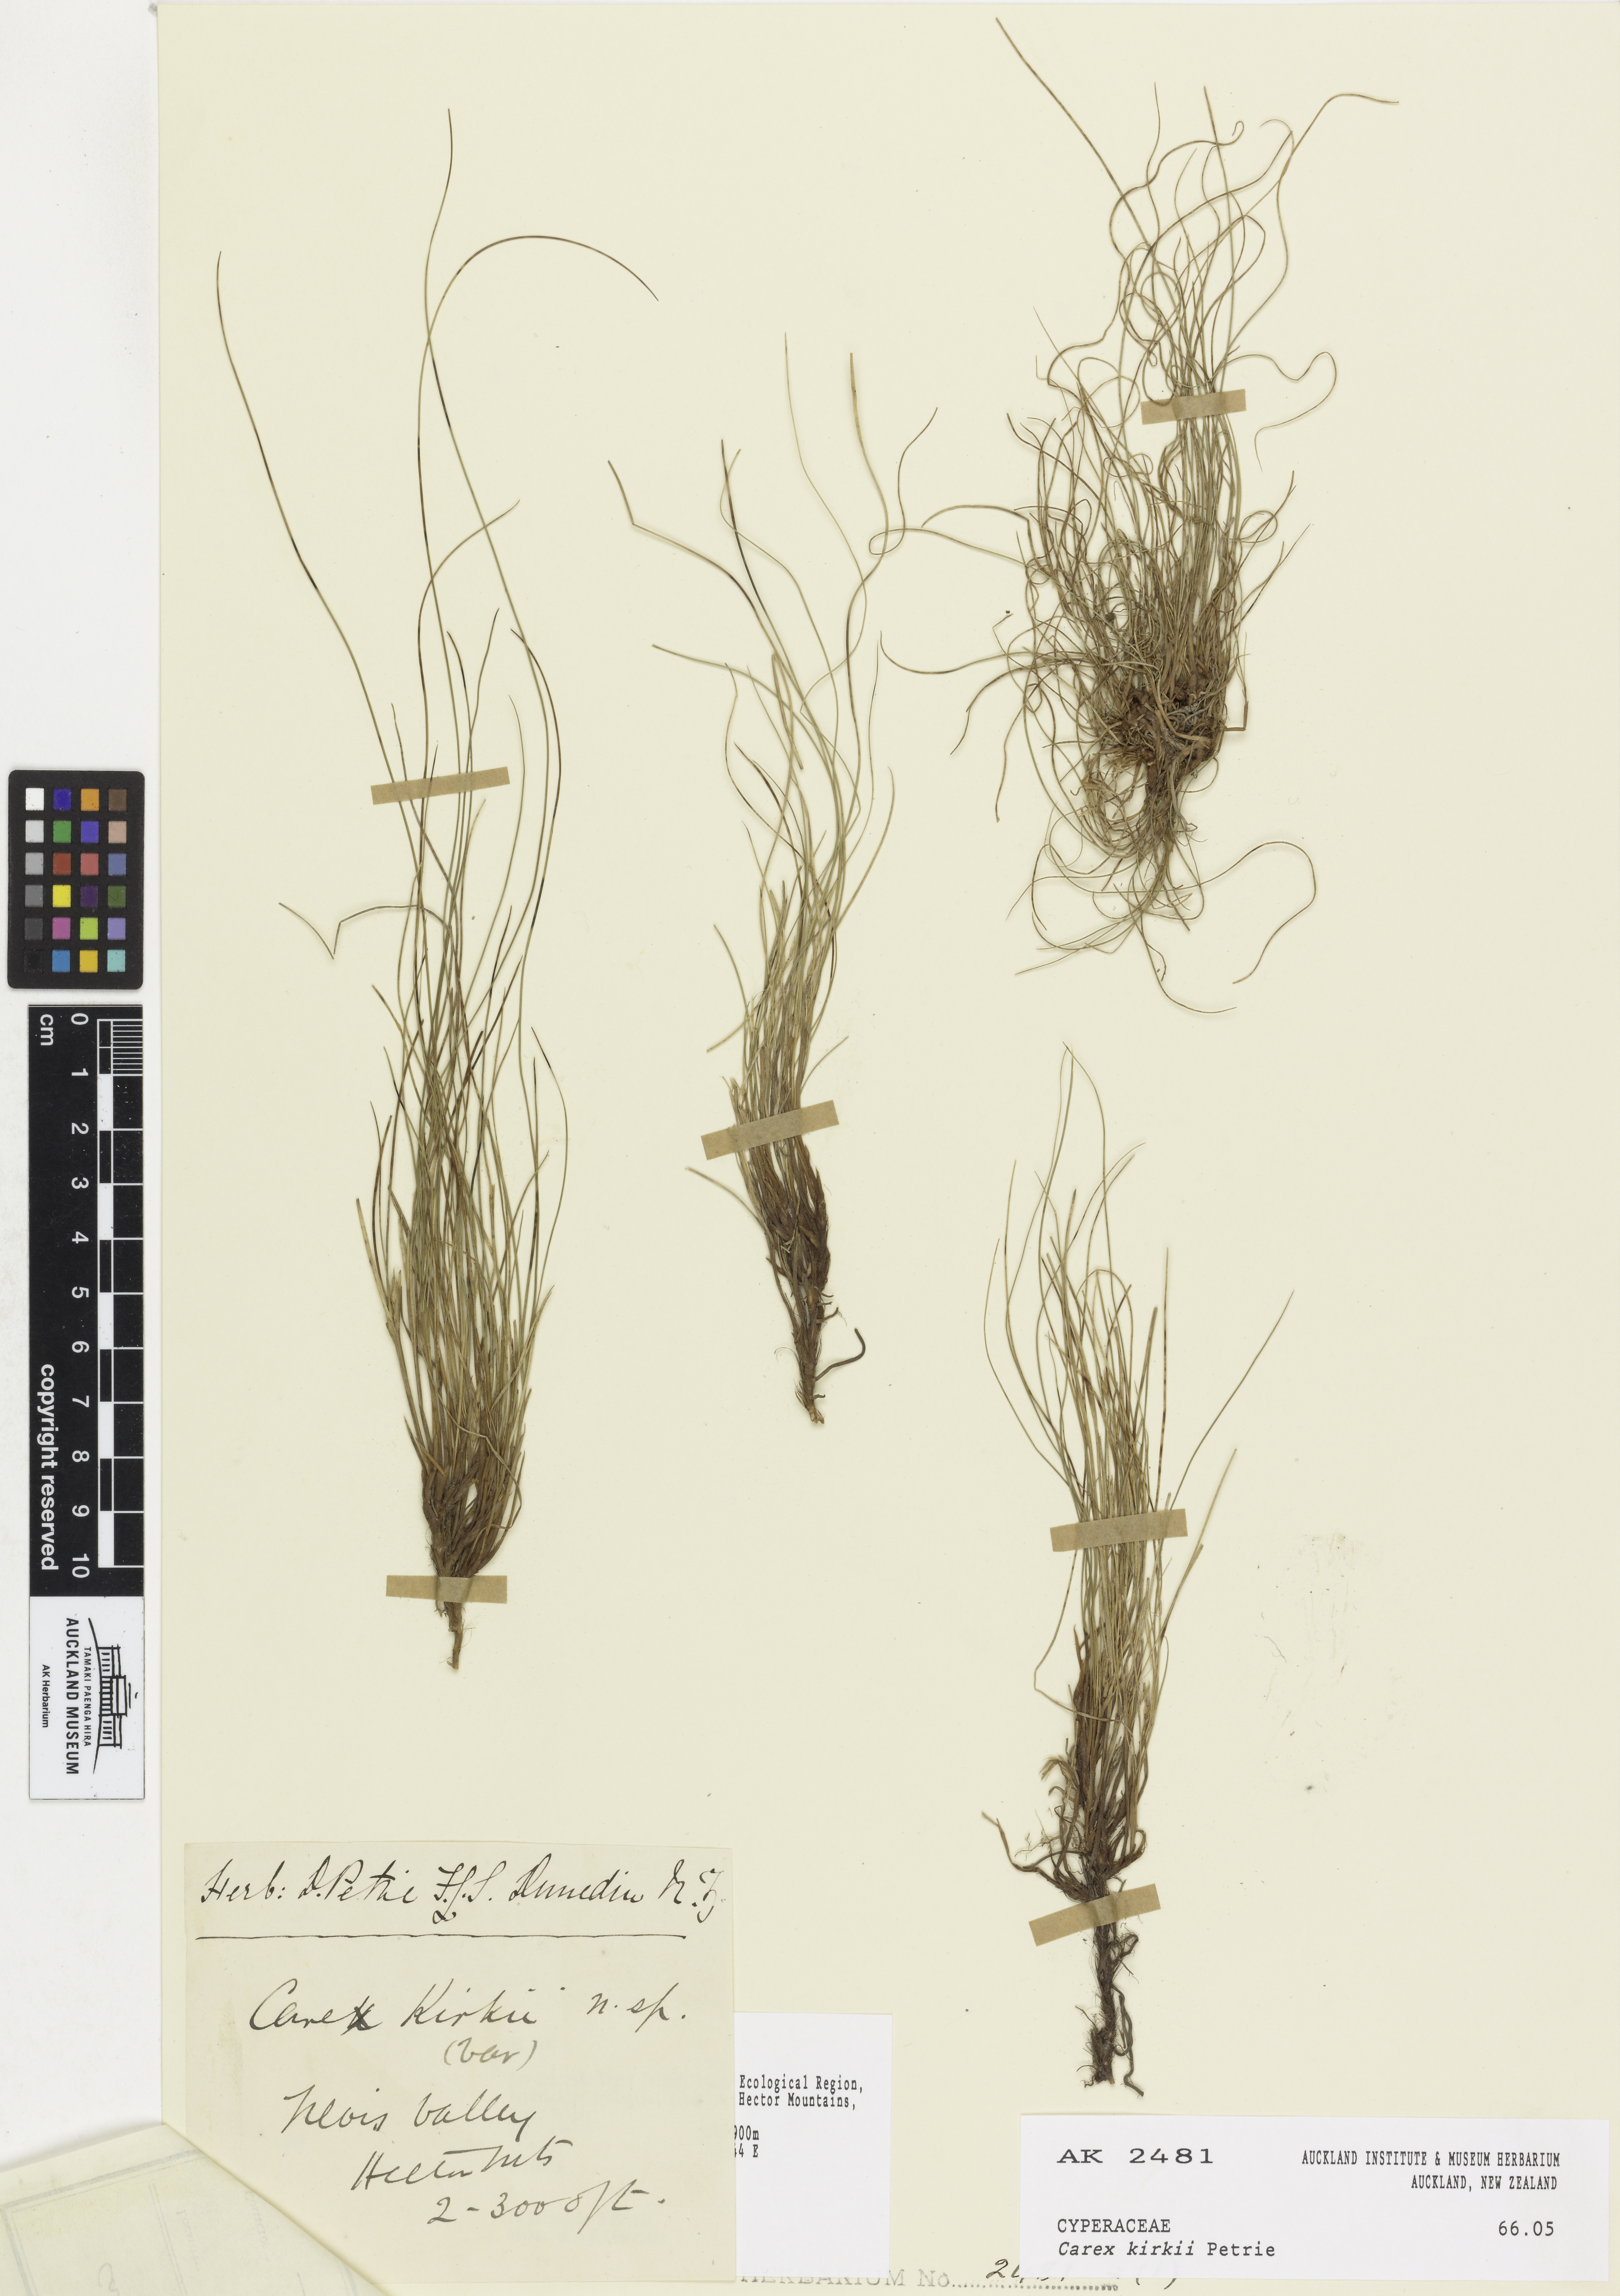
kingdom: Plantae
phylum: Tracheophyta
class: Liliopsida
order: Poales
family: Cyperaceae
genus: Carex
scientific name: Carex kirkii
